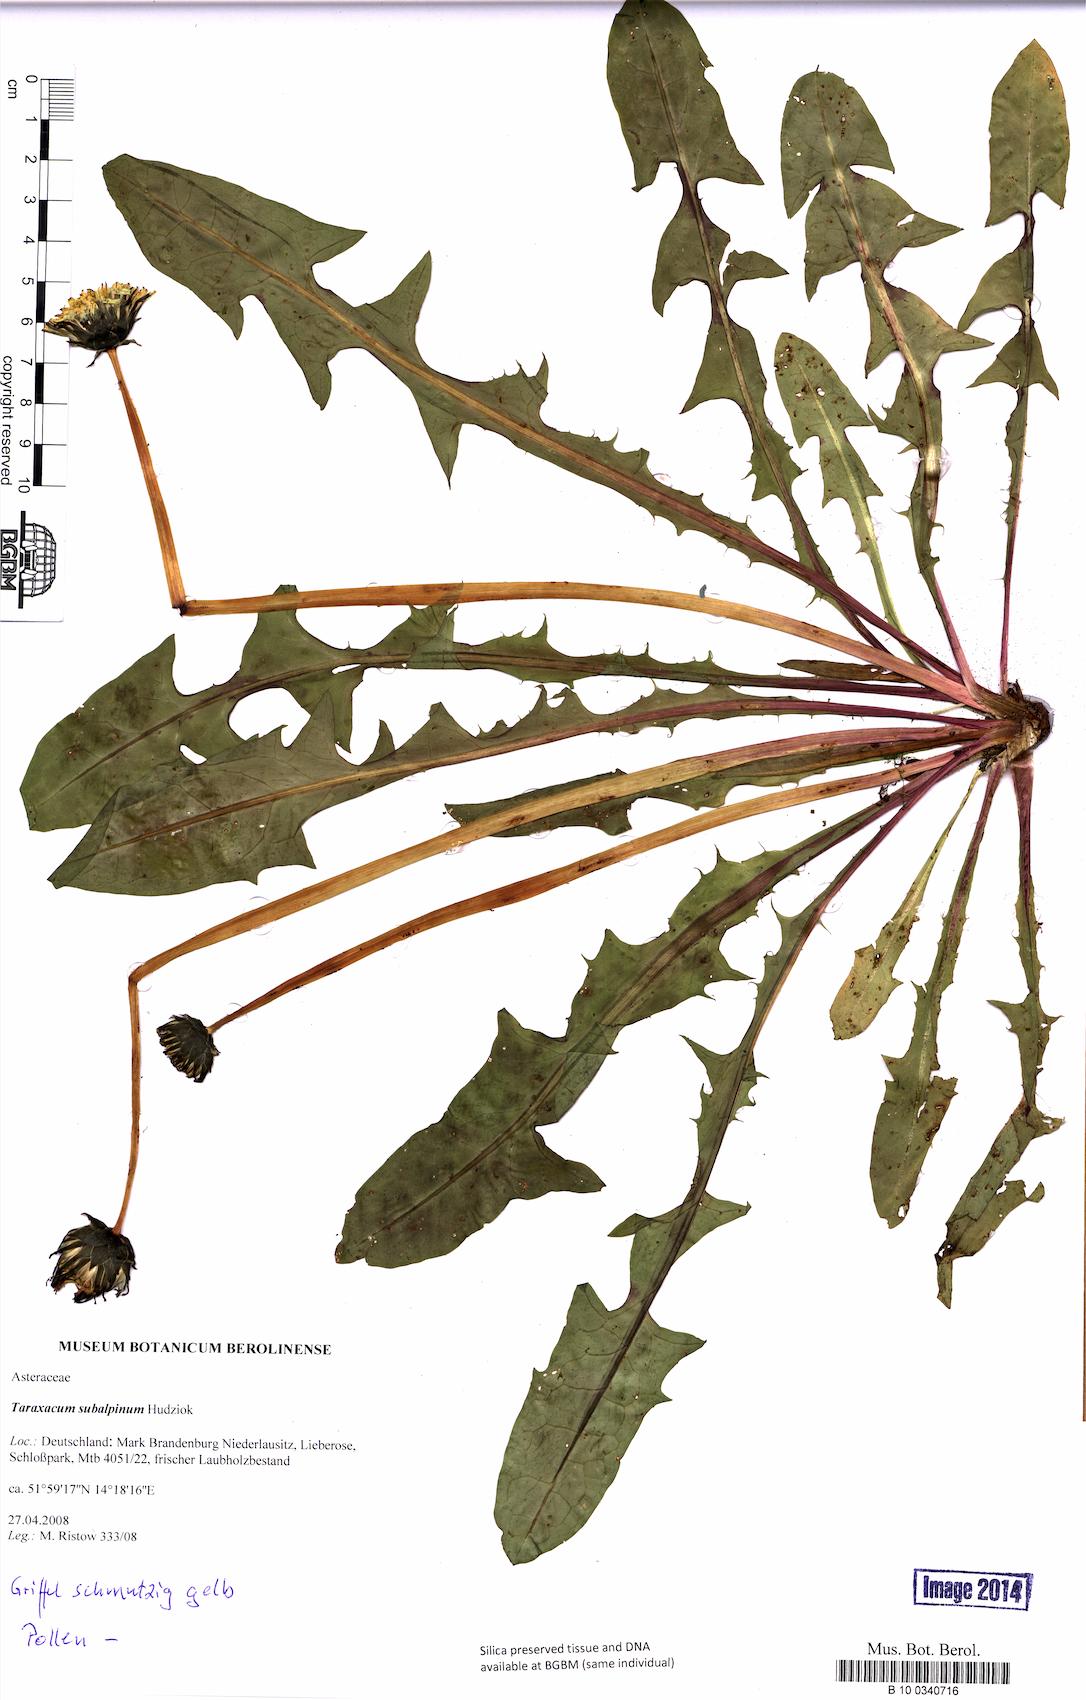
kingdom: Plantae
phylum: Tracheophyta
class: Magnoliopsida
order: Asterales
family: Asteraceae
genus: Taraxacum
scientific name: Taraxacum subalpinum
